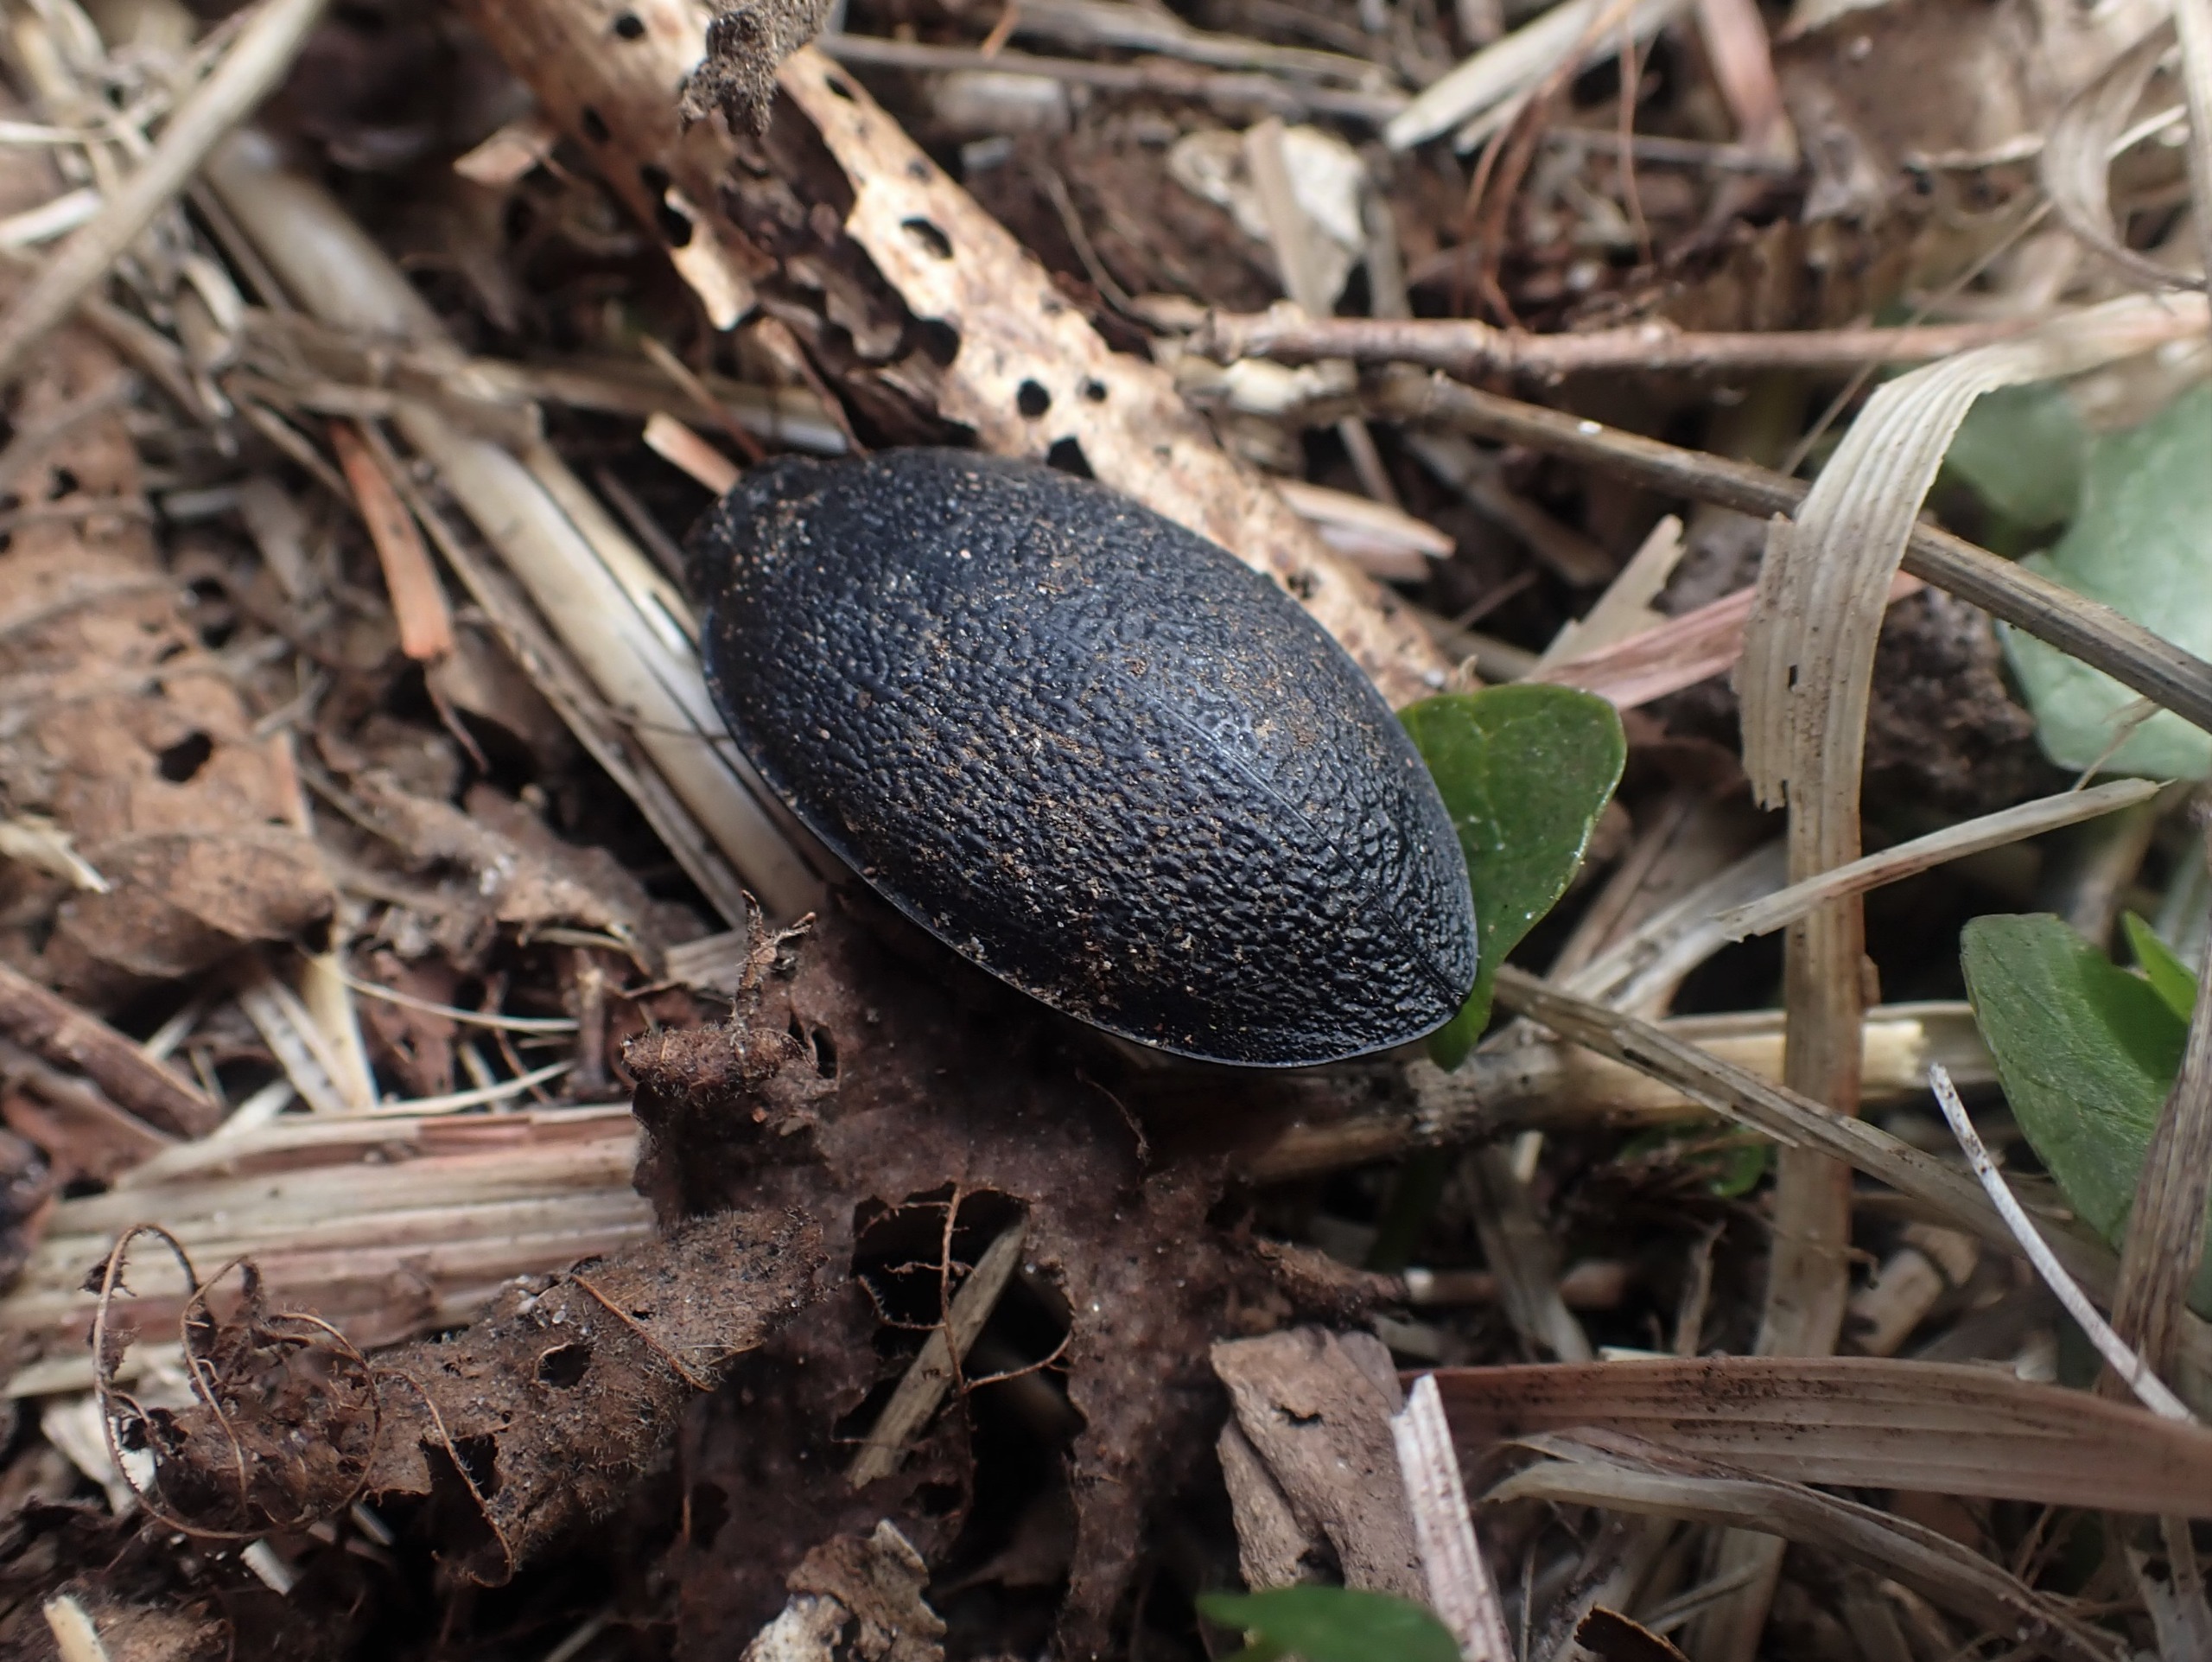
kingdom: Animalia
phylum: Arthropoda
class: Insecta
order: Coleoptera
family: Carabidae
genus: Carabus
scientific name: Carabus coriaceus
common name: Læderløber
